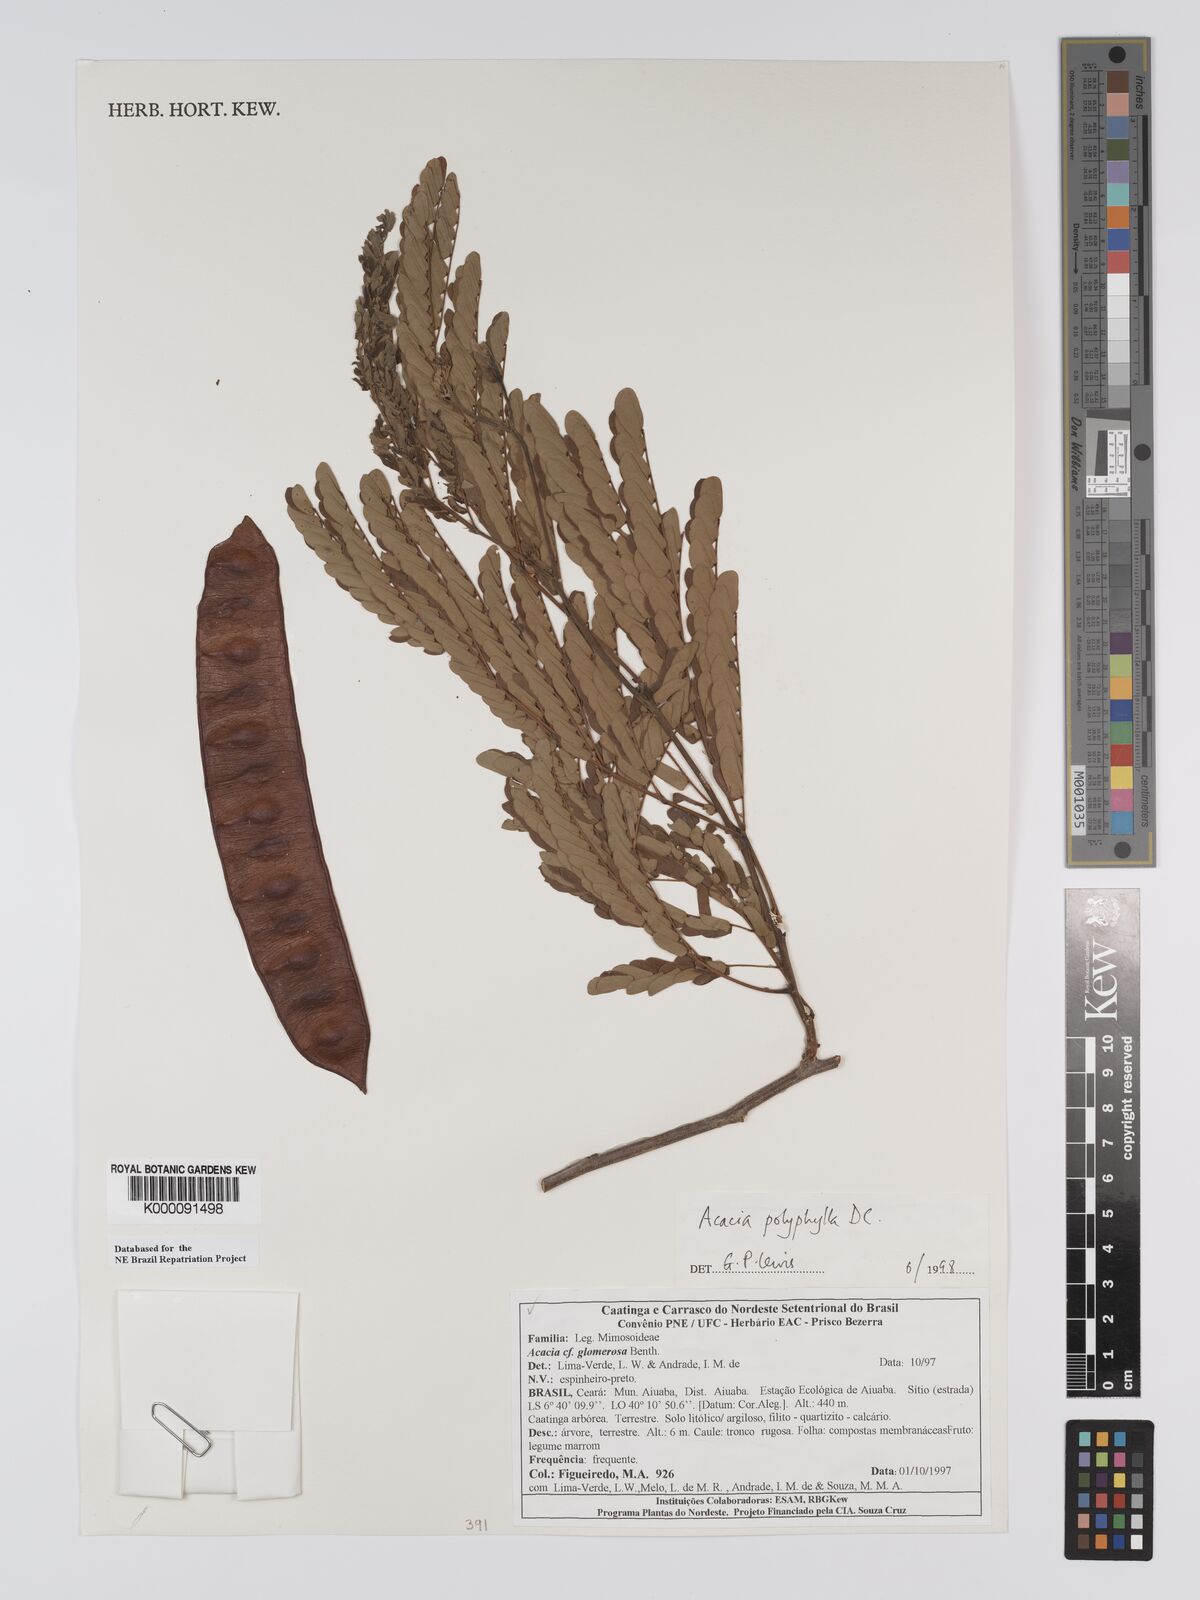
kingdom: Plantae
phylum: Tracheophyta
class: Magnoliopsida
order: Fabales
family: Fabaceae
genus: Senegalia
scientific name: Senegalia polyphylla
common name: White-tamarind
